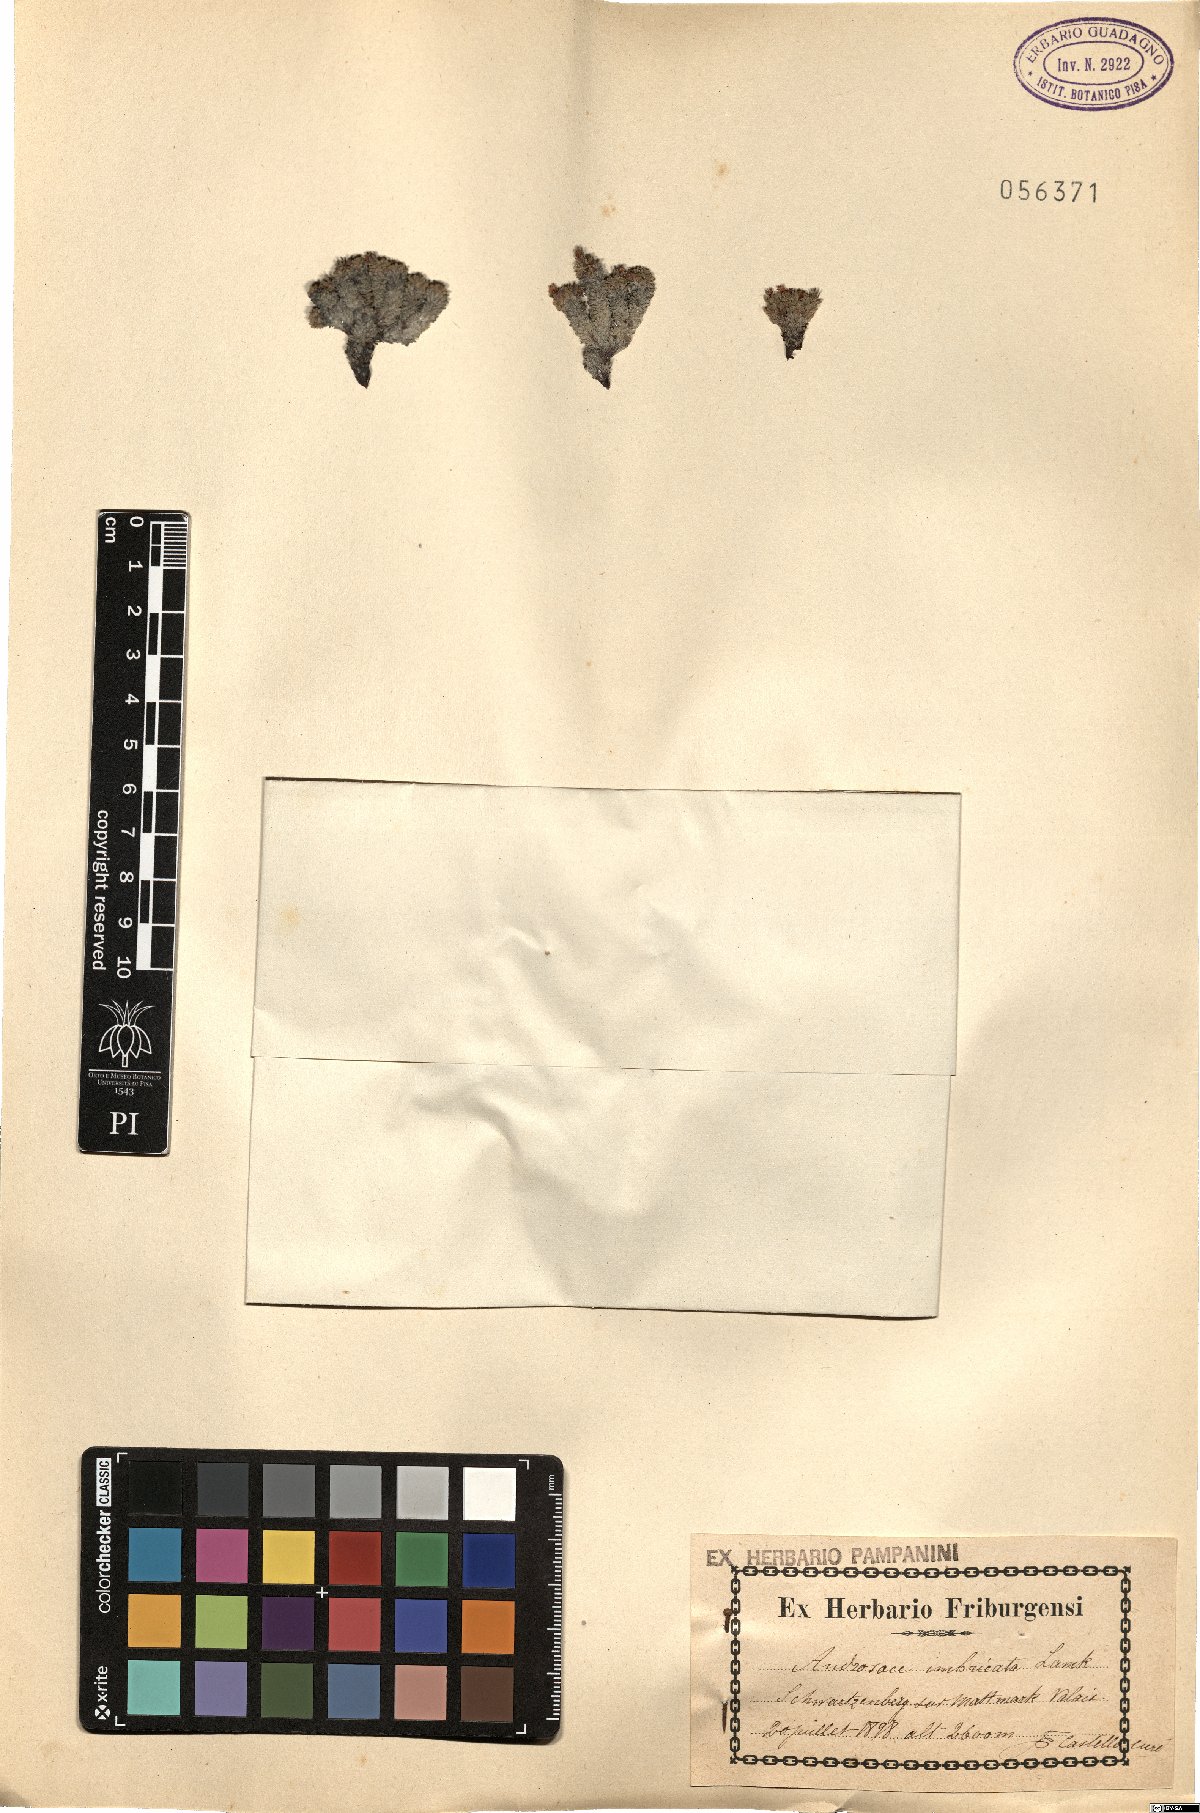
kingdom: Plantae
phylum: Tracheophyta
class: Magnoliopsida
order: Ericales
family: Primulaceae
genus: Androsace
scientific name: Androsace helvetica
